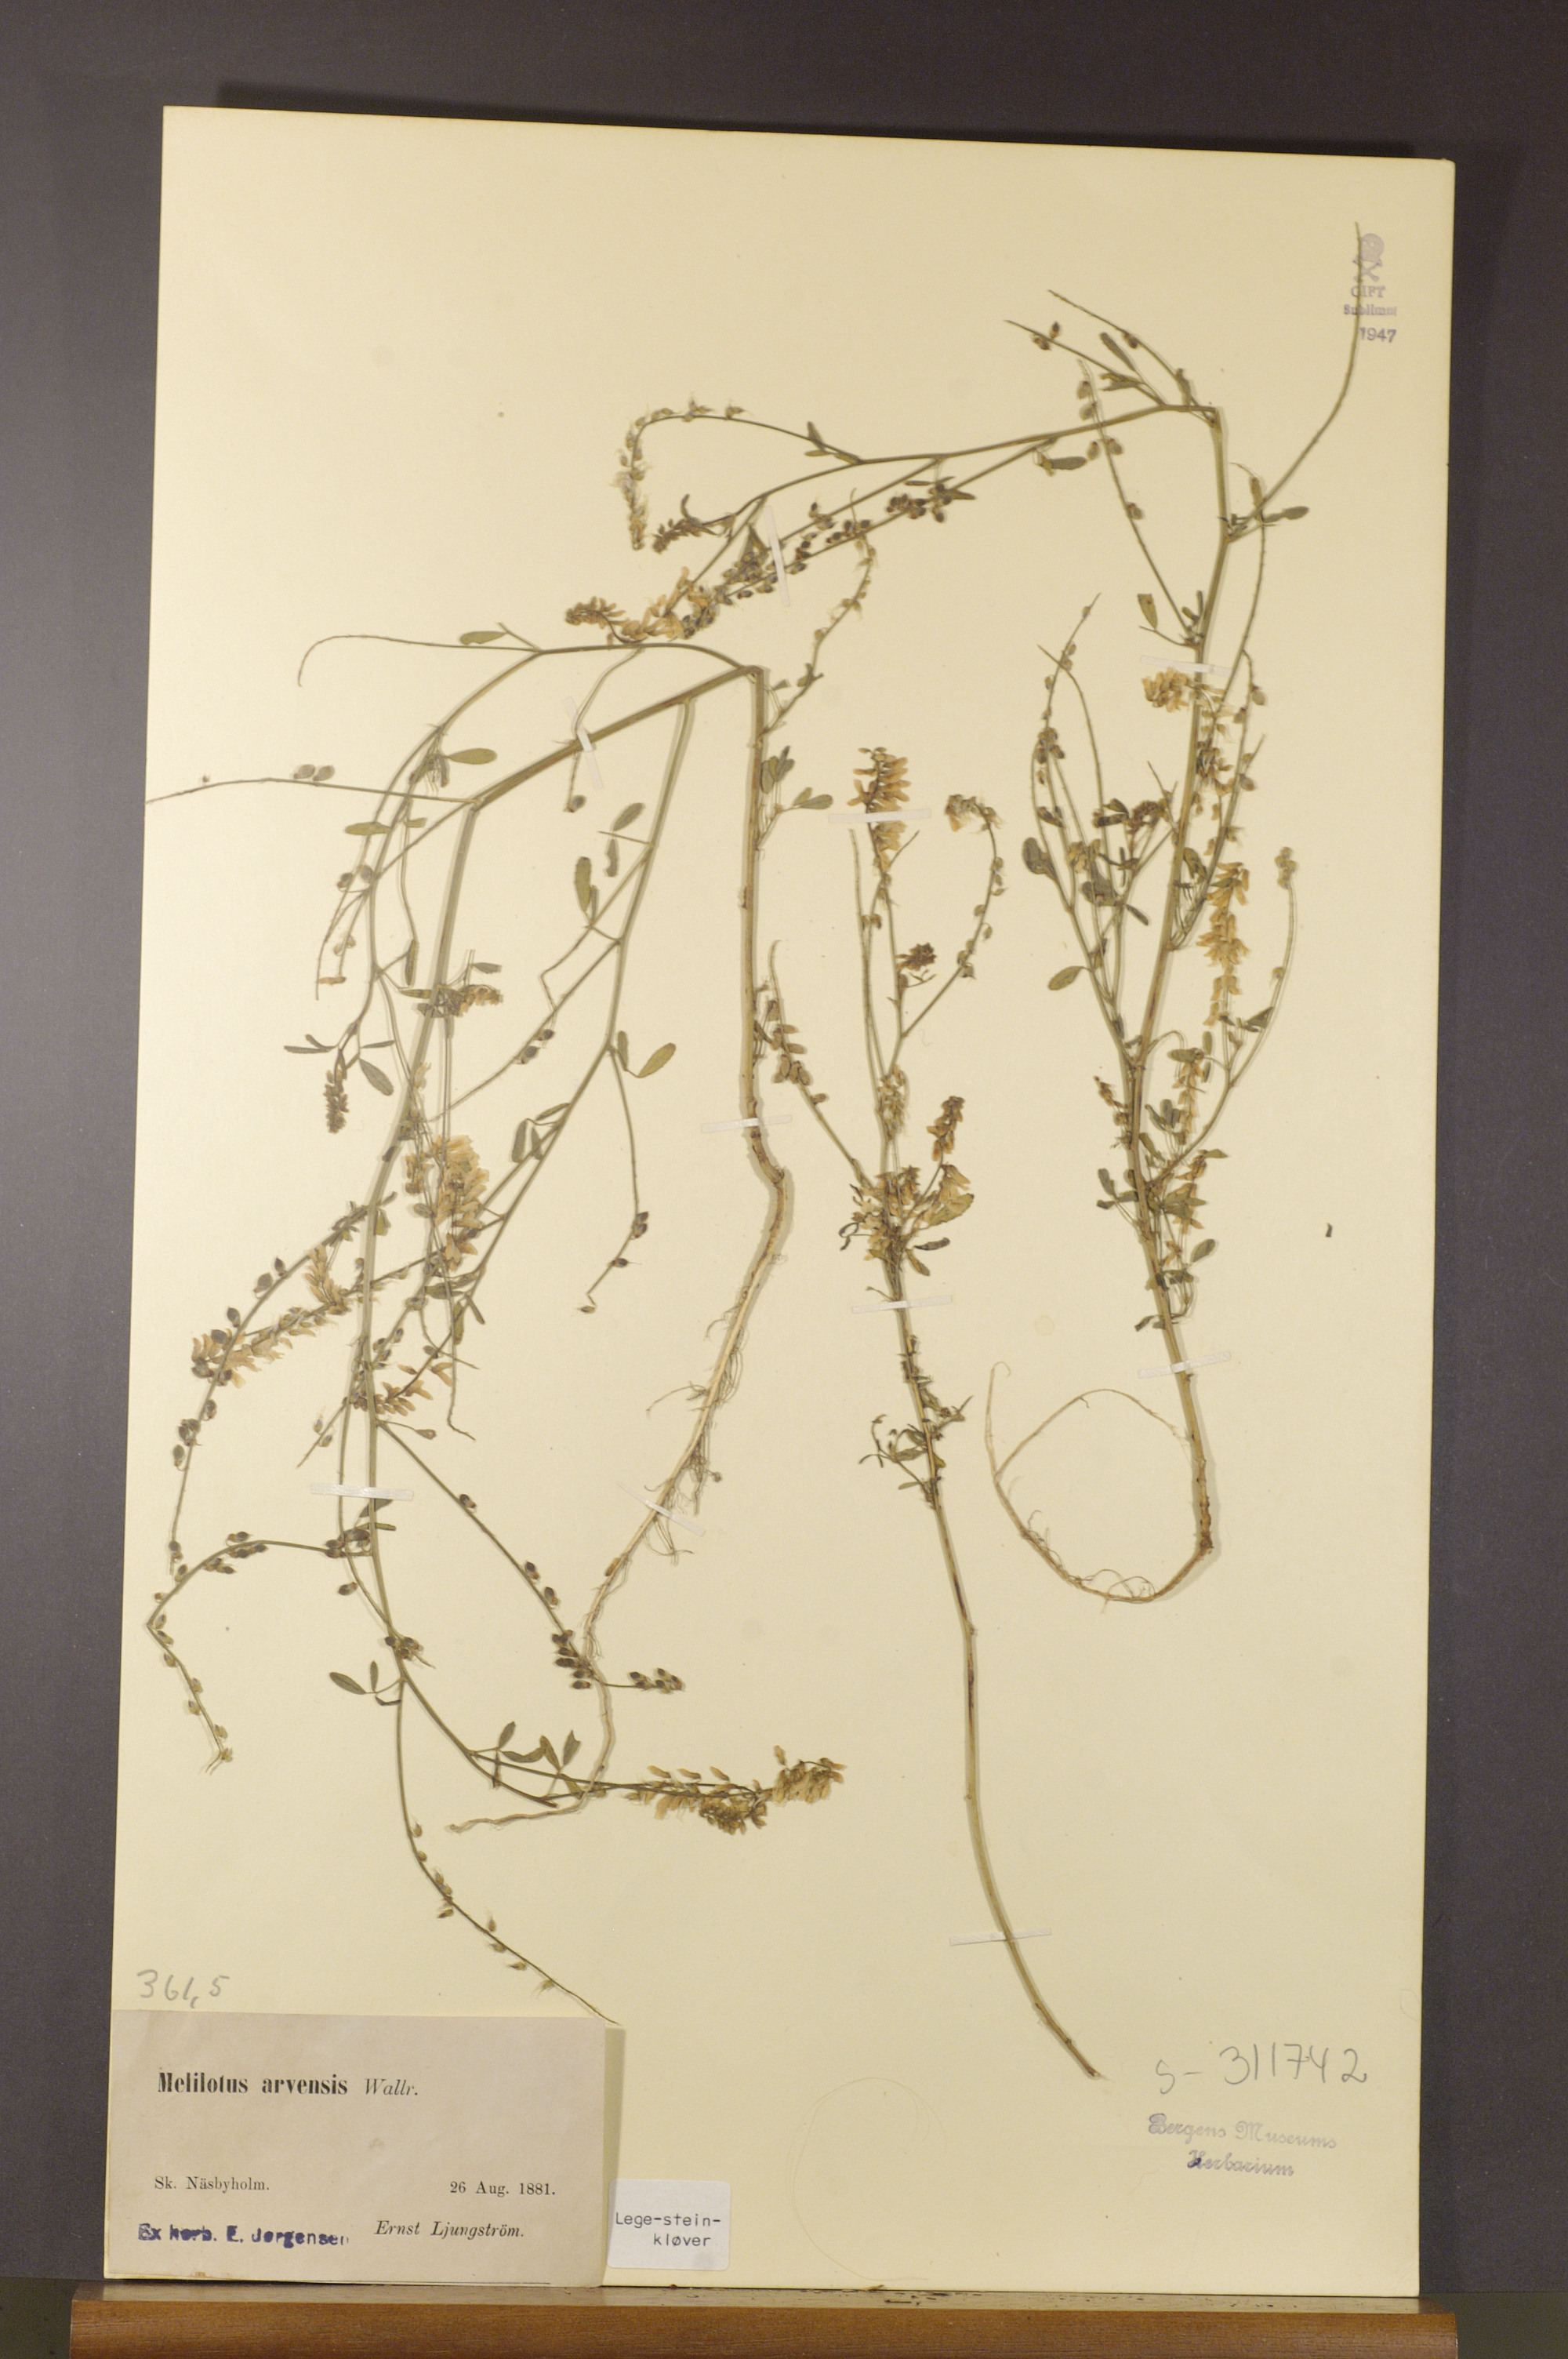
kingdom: Plantae
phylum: Tracheophyta
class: Magnoliopsida
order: Fabales
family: Fabaceae
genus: Melilotus
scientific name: Melilotus officinalis
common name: Sweetclover
